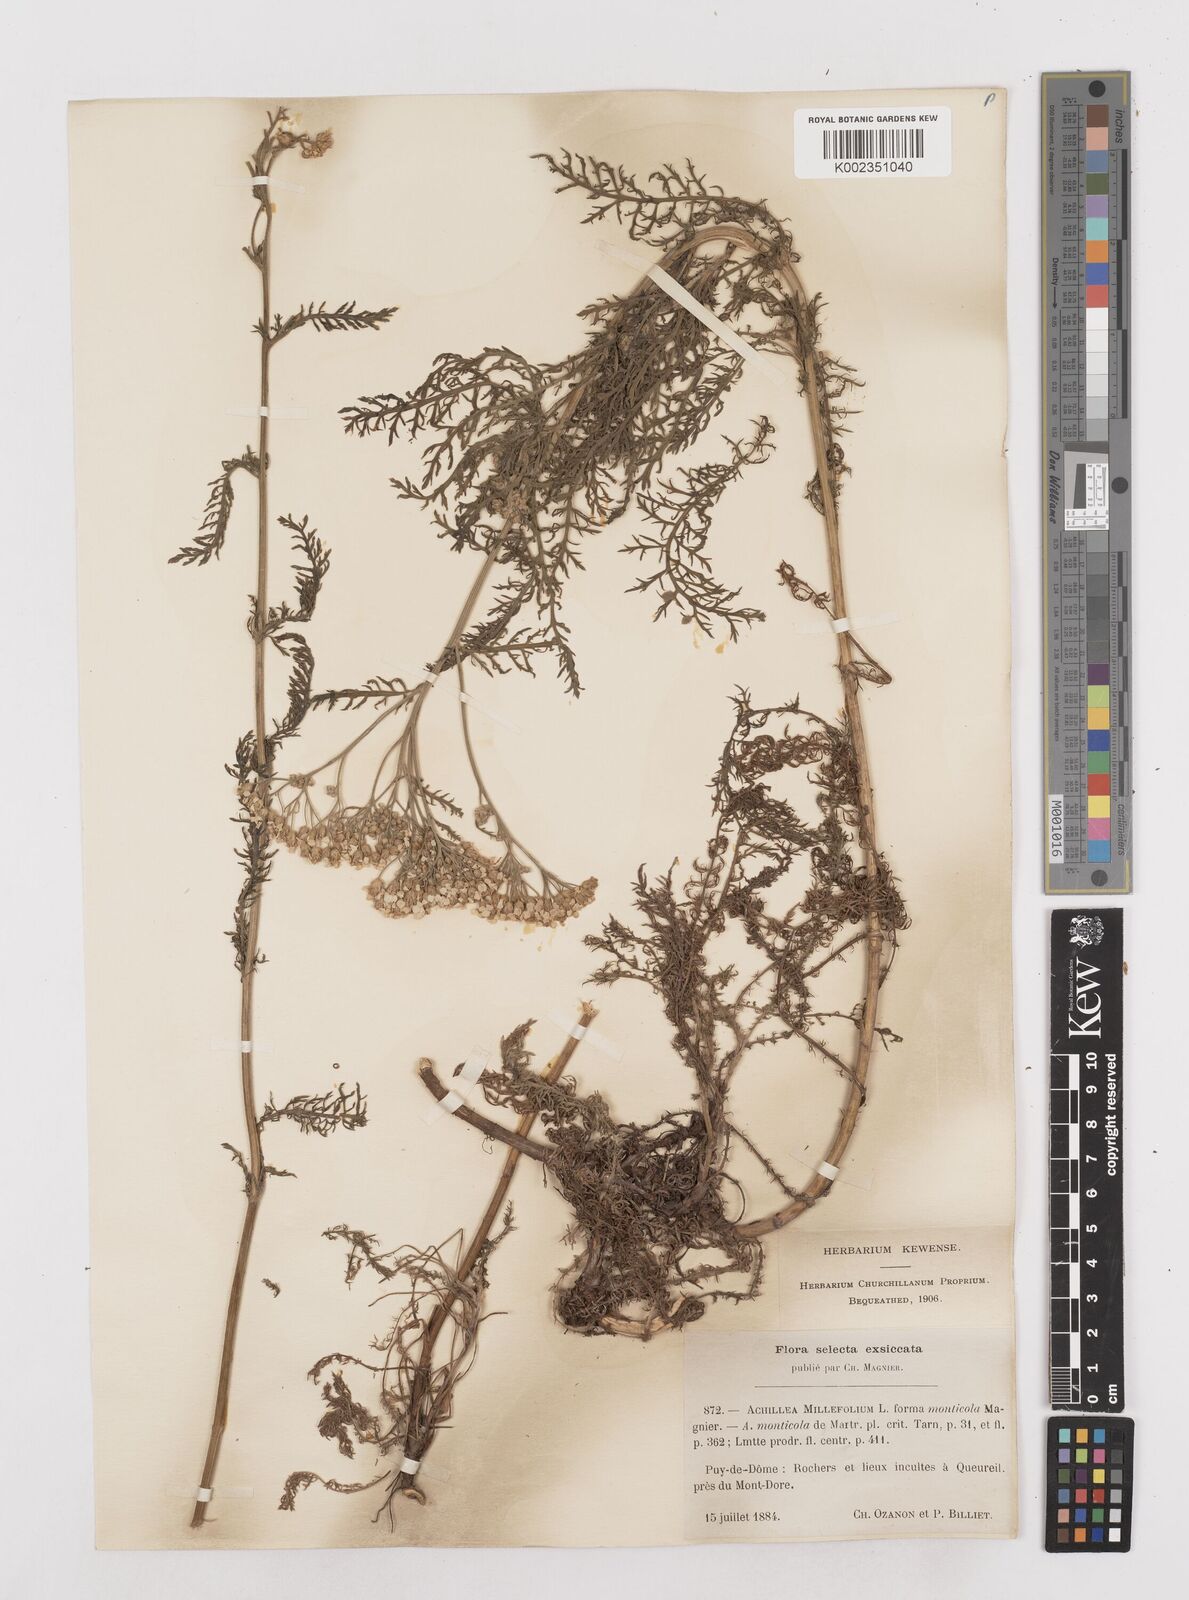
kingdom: Plantae
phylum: Tracheophyta
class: Magnoliopsida
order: Asterales
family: Asteraceae
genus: Achillea
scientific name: Achillea millefolium
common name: Yarrow
